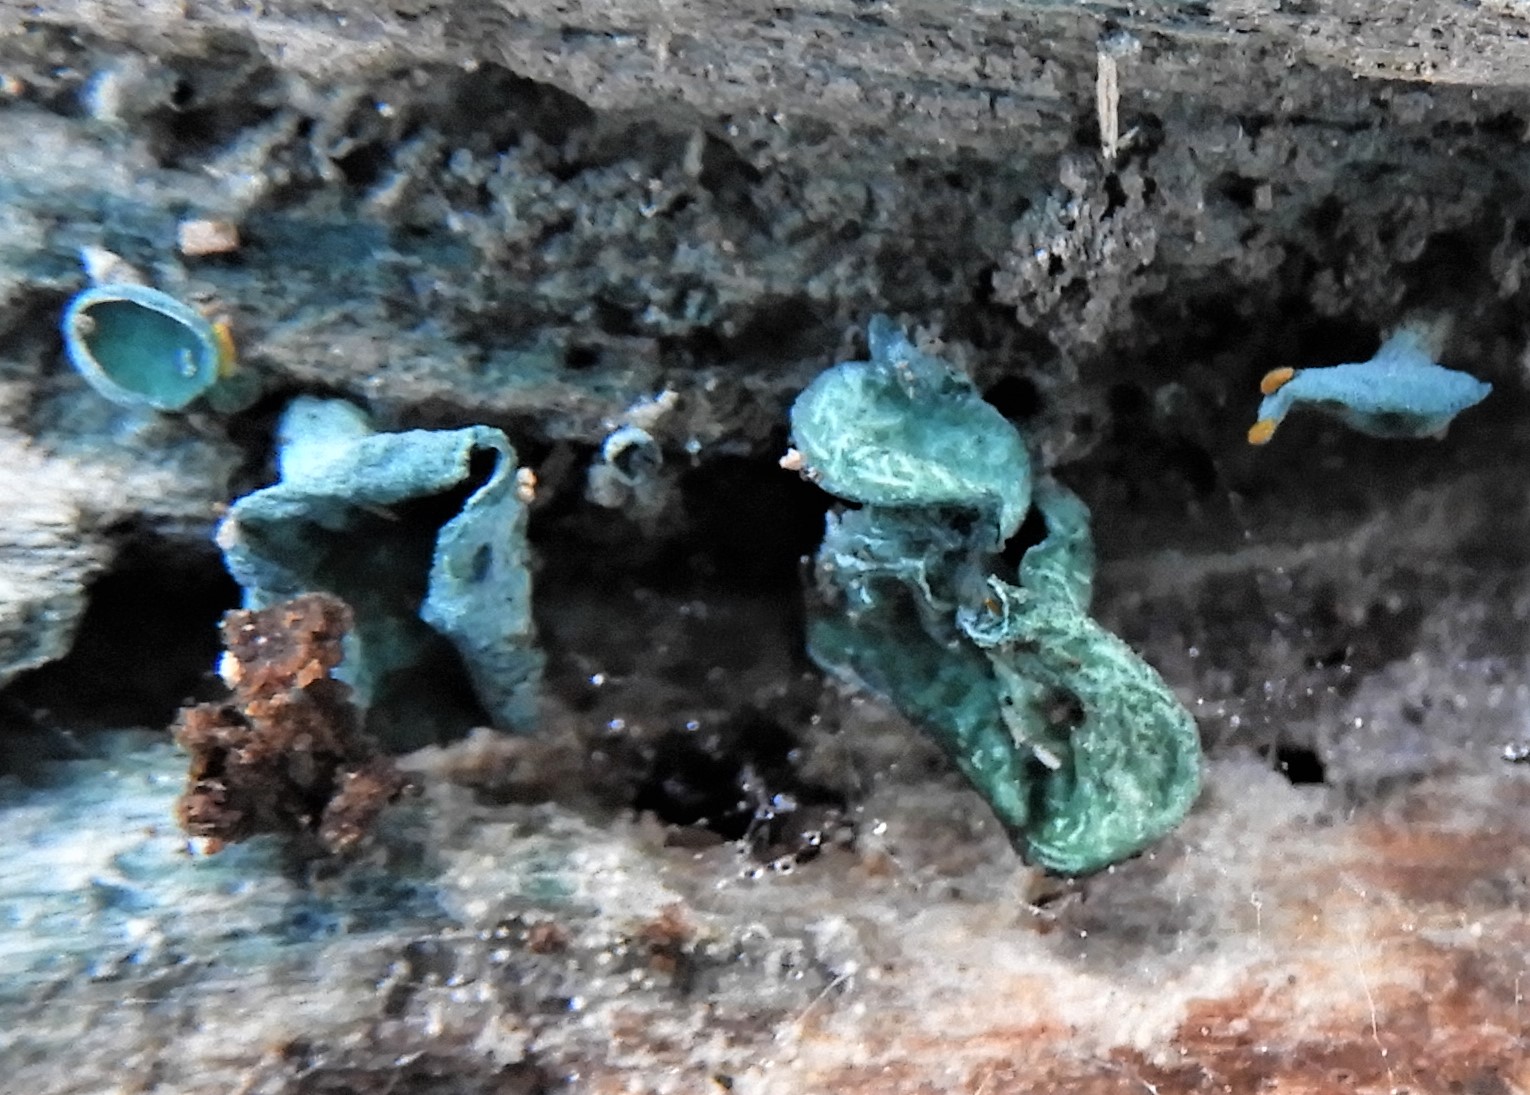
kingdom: Fungi
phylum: Ascomycota
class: Leotiomycetes
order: Helotiales
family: Chlorociboriaceae
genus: Chlorociboria
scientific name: Chlorociboria aeruginascens
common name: almindelig grønskive
